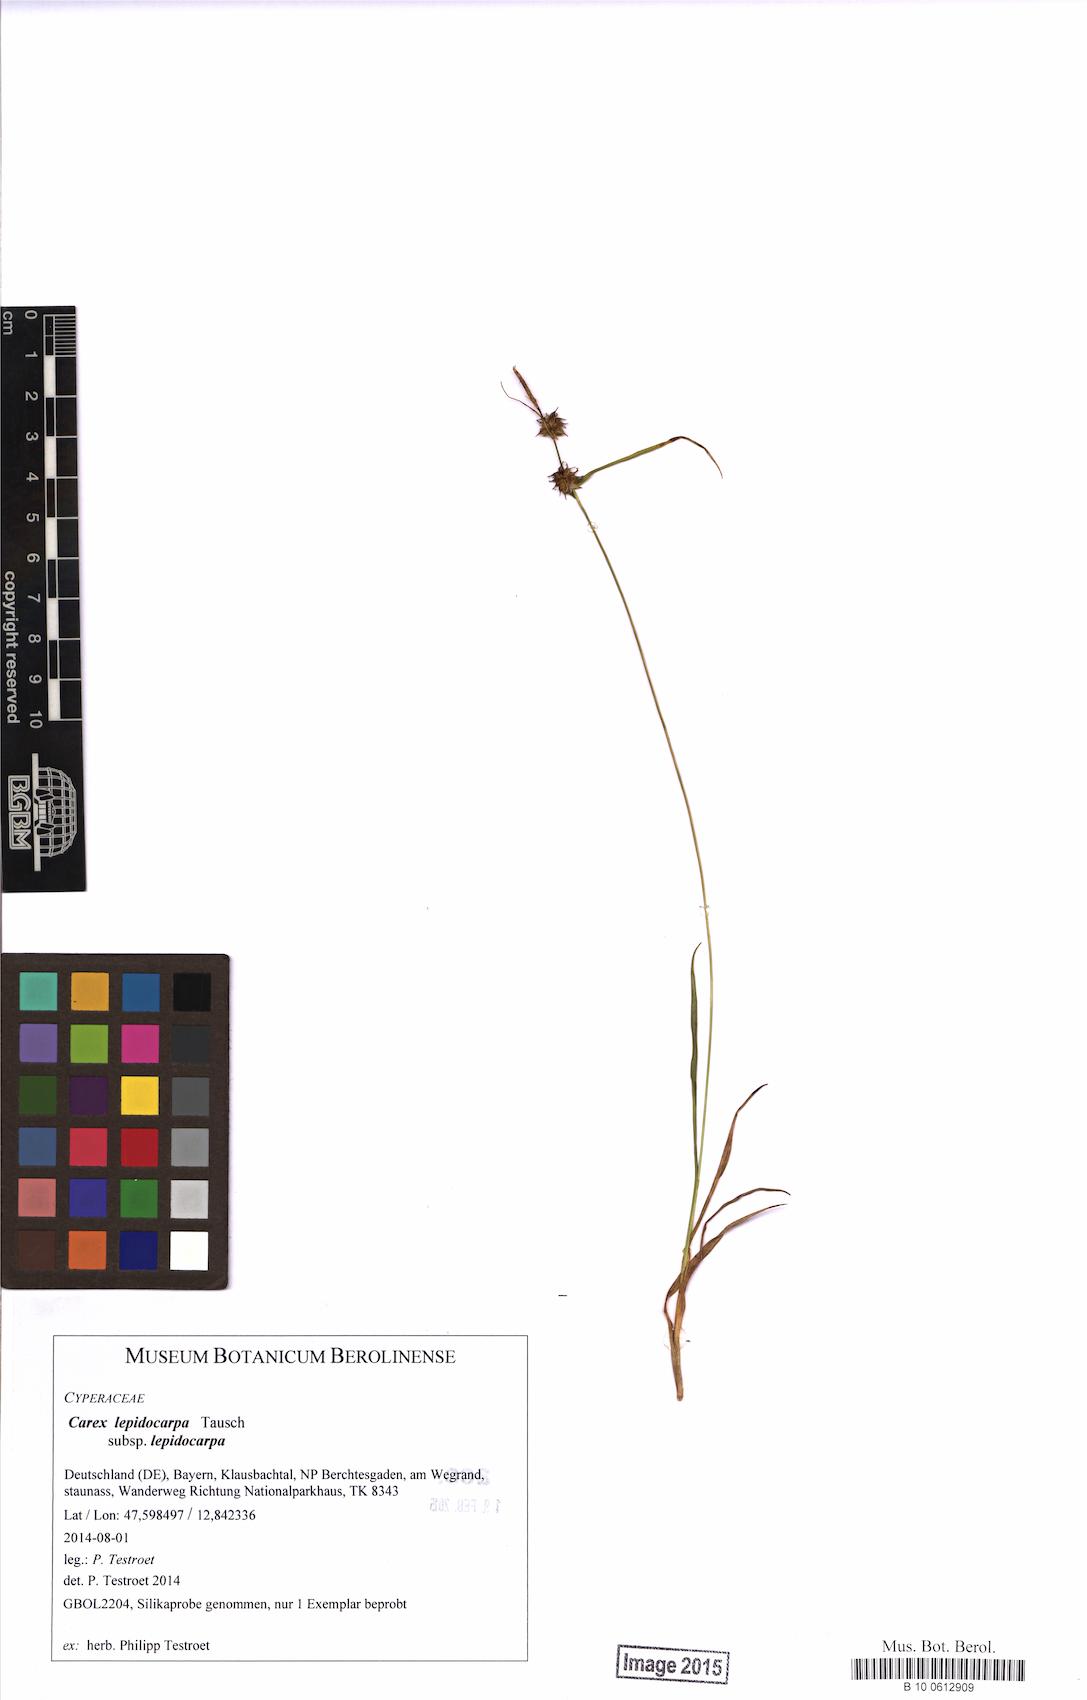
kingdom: Plantae
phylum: Tracheophyta
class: Liliopsida
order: Poales
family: Cyperaceae
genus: Carex
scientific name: Carex lepidocarpa
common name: Long-stalked yellow-sedge
